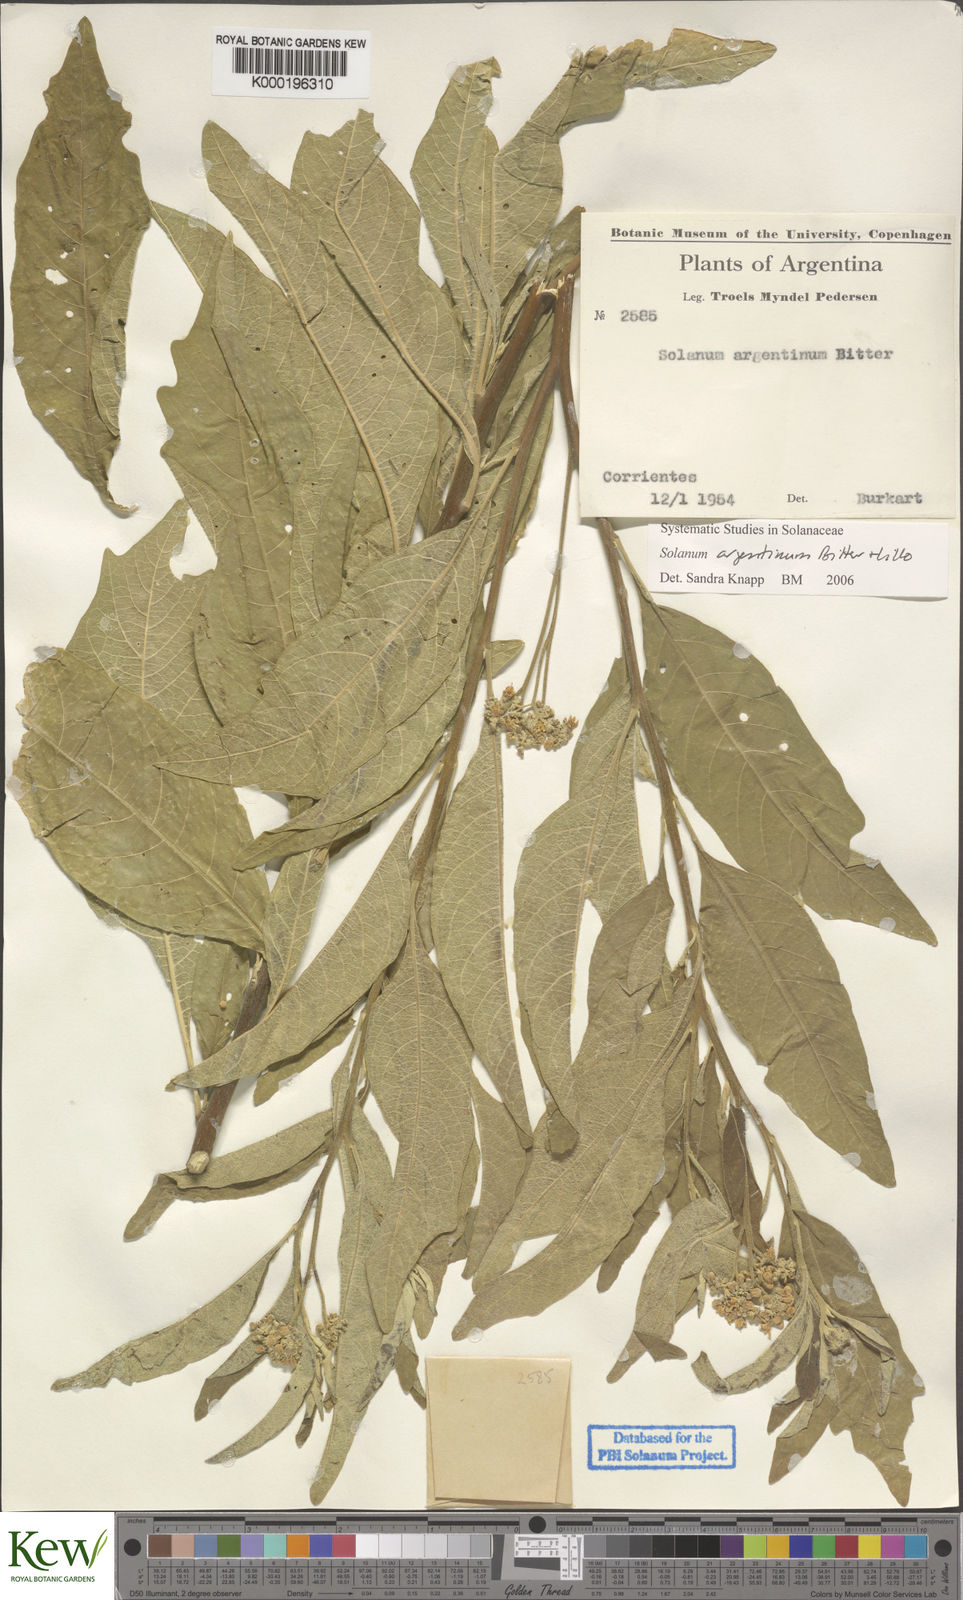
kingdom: Plantae
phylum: Tracheophyta
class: Magnoliopsida
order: Solanales
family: Solanaceae
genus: Solanum
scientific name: Solanum argentinum
